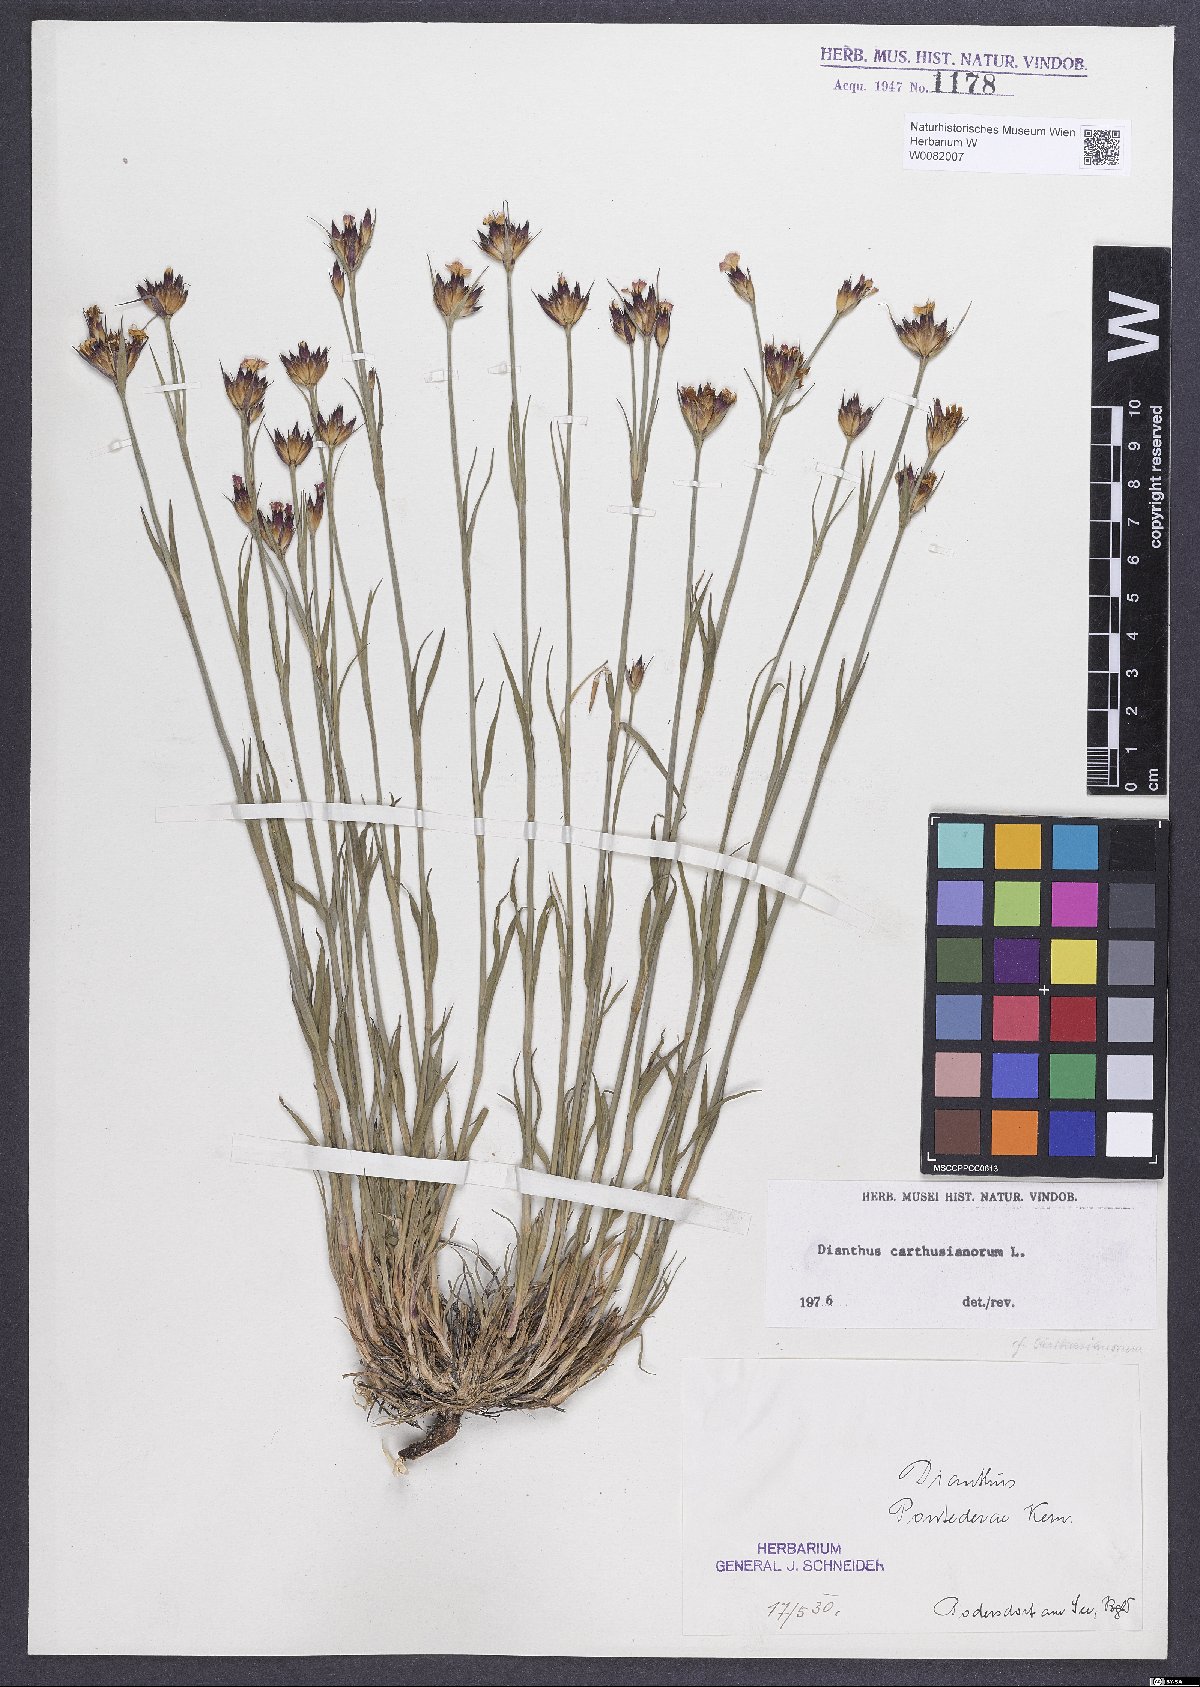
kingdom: Plantae
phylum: Tracheophyta
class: Magnoliopsida
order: Caryophyllales
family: Caryophyllaceae
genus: Dianthus
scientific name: Dianthus carthusianorum
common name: Carthusian pink
